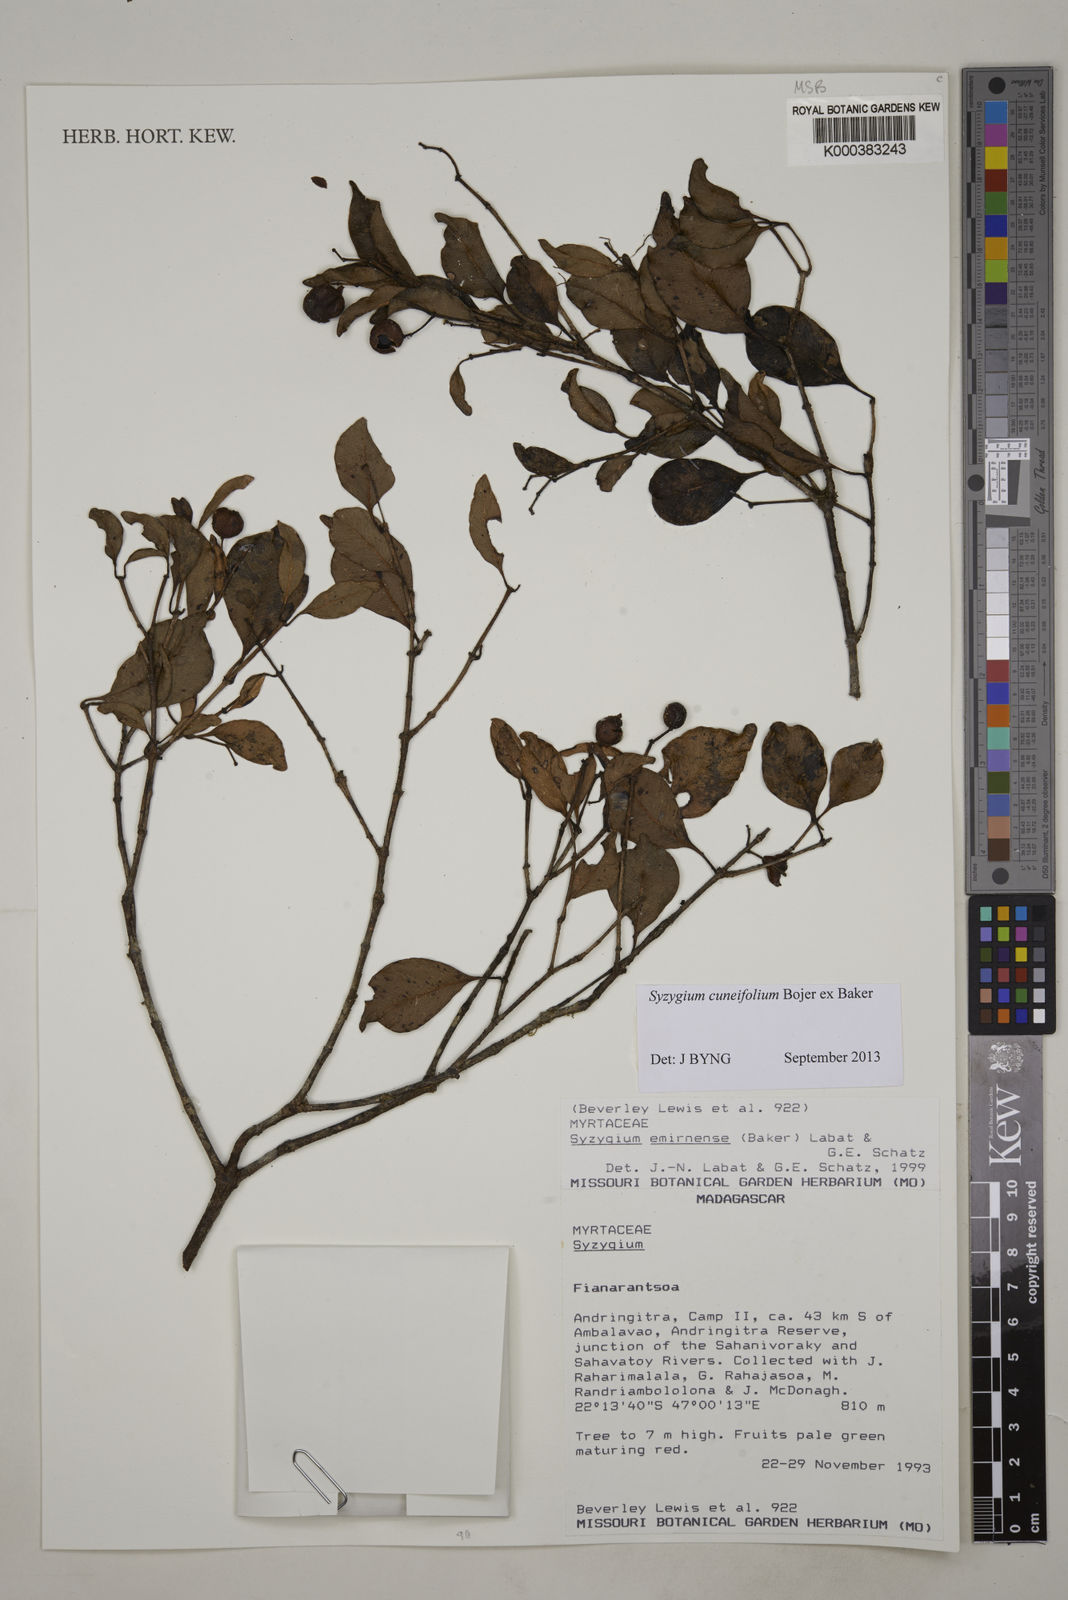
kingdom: Plantae
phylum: Tracheophyta
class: Magnoliopsida
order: Myrtales
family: Myrtaceae
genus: Syzygium
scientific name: Syzygium emirnense
